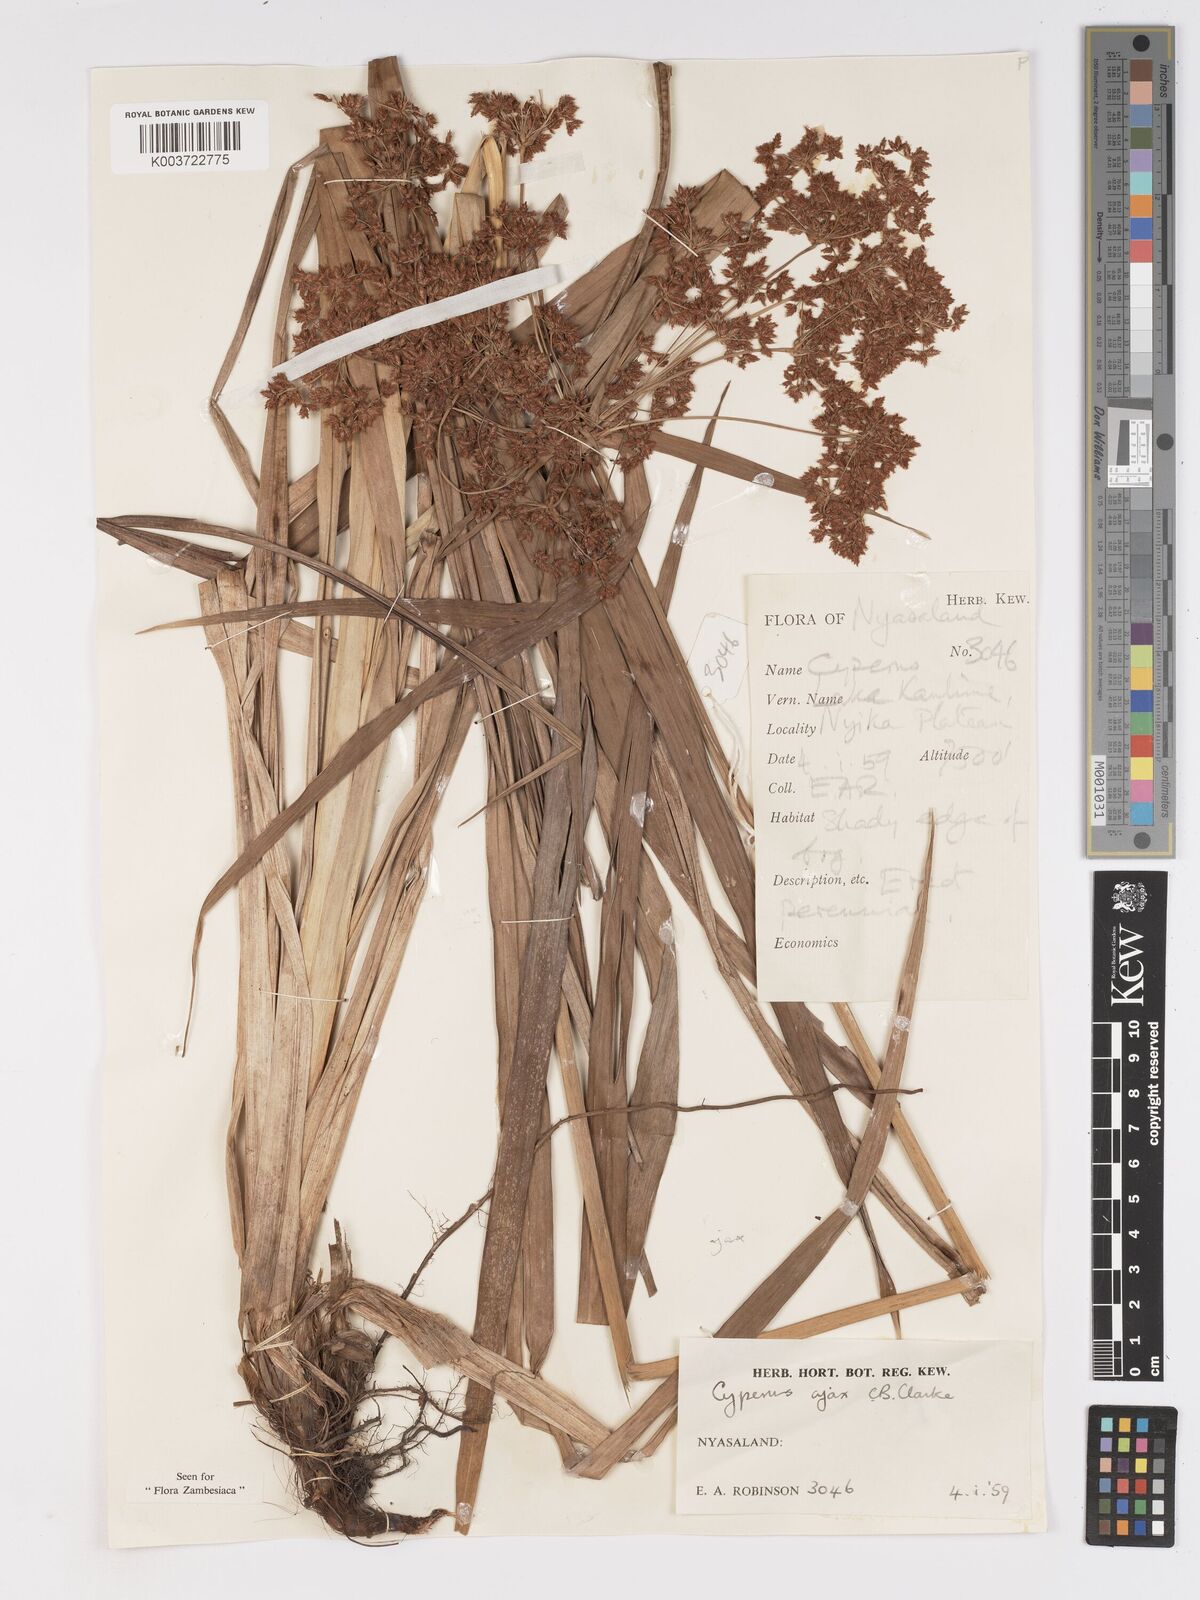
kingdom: Plantae
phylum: Tracheophyta
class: Liliopsida
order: Poales
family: Cyperaceae
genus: Cyperus
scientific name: Cyperus ajax
